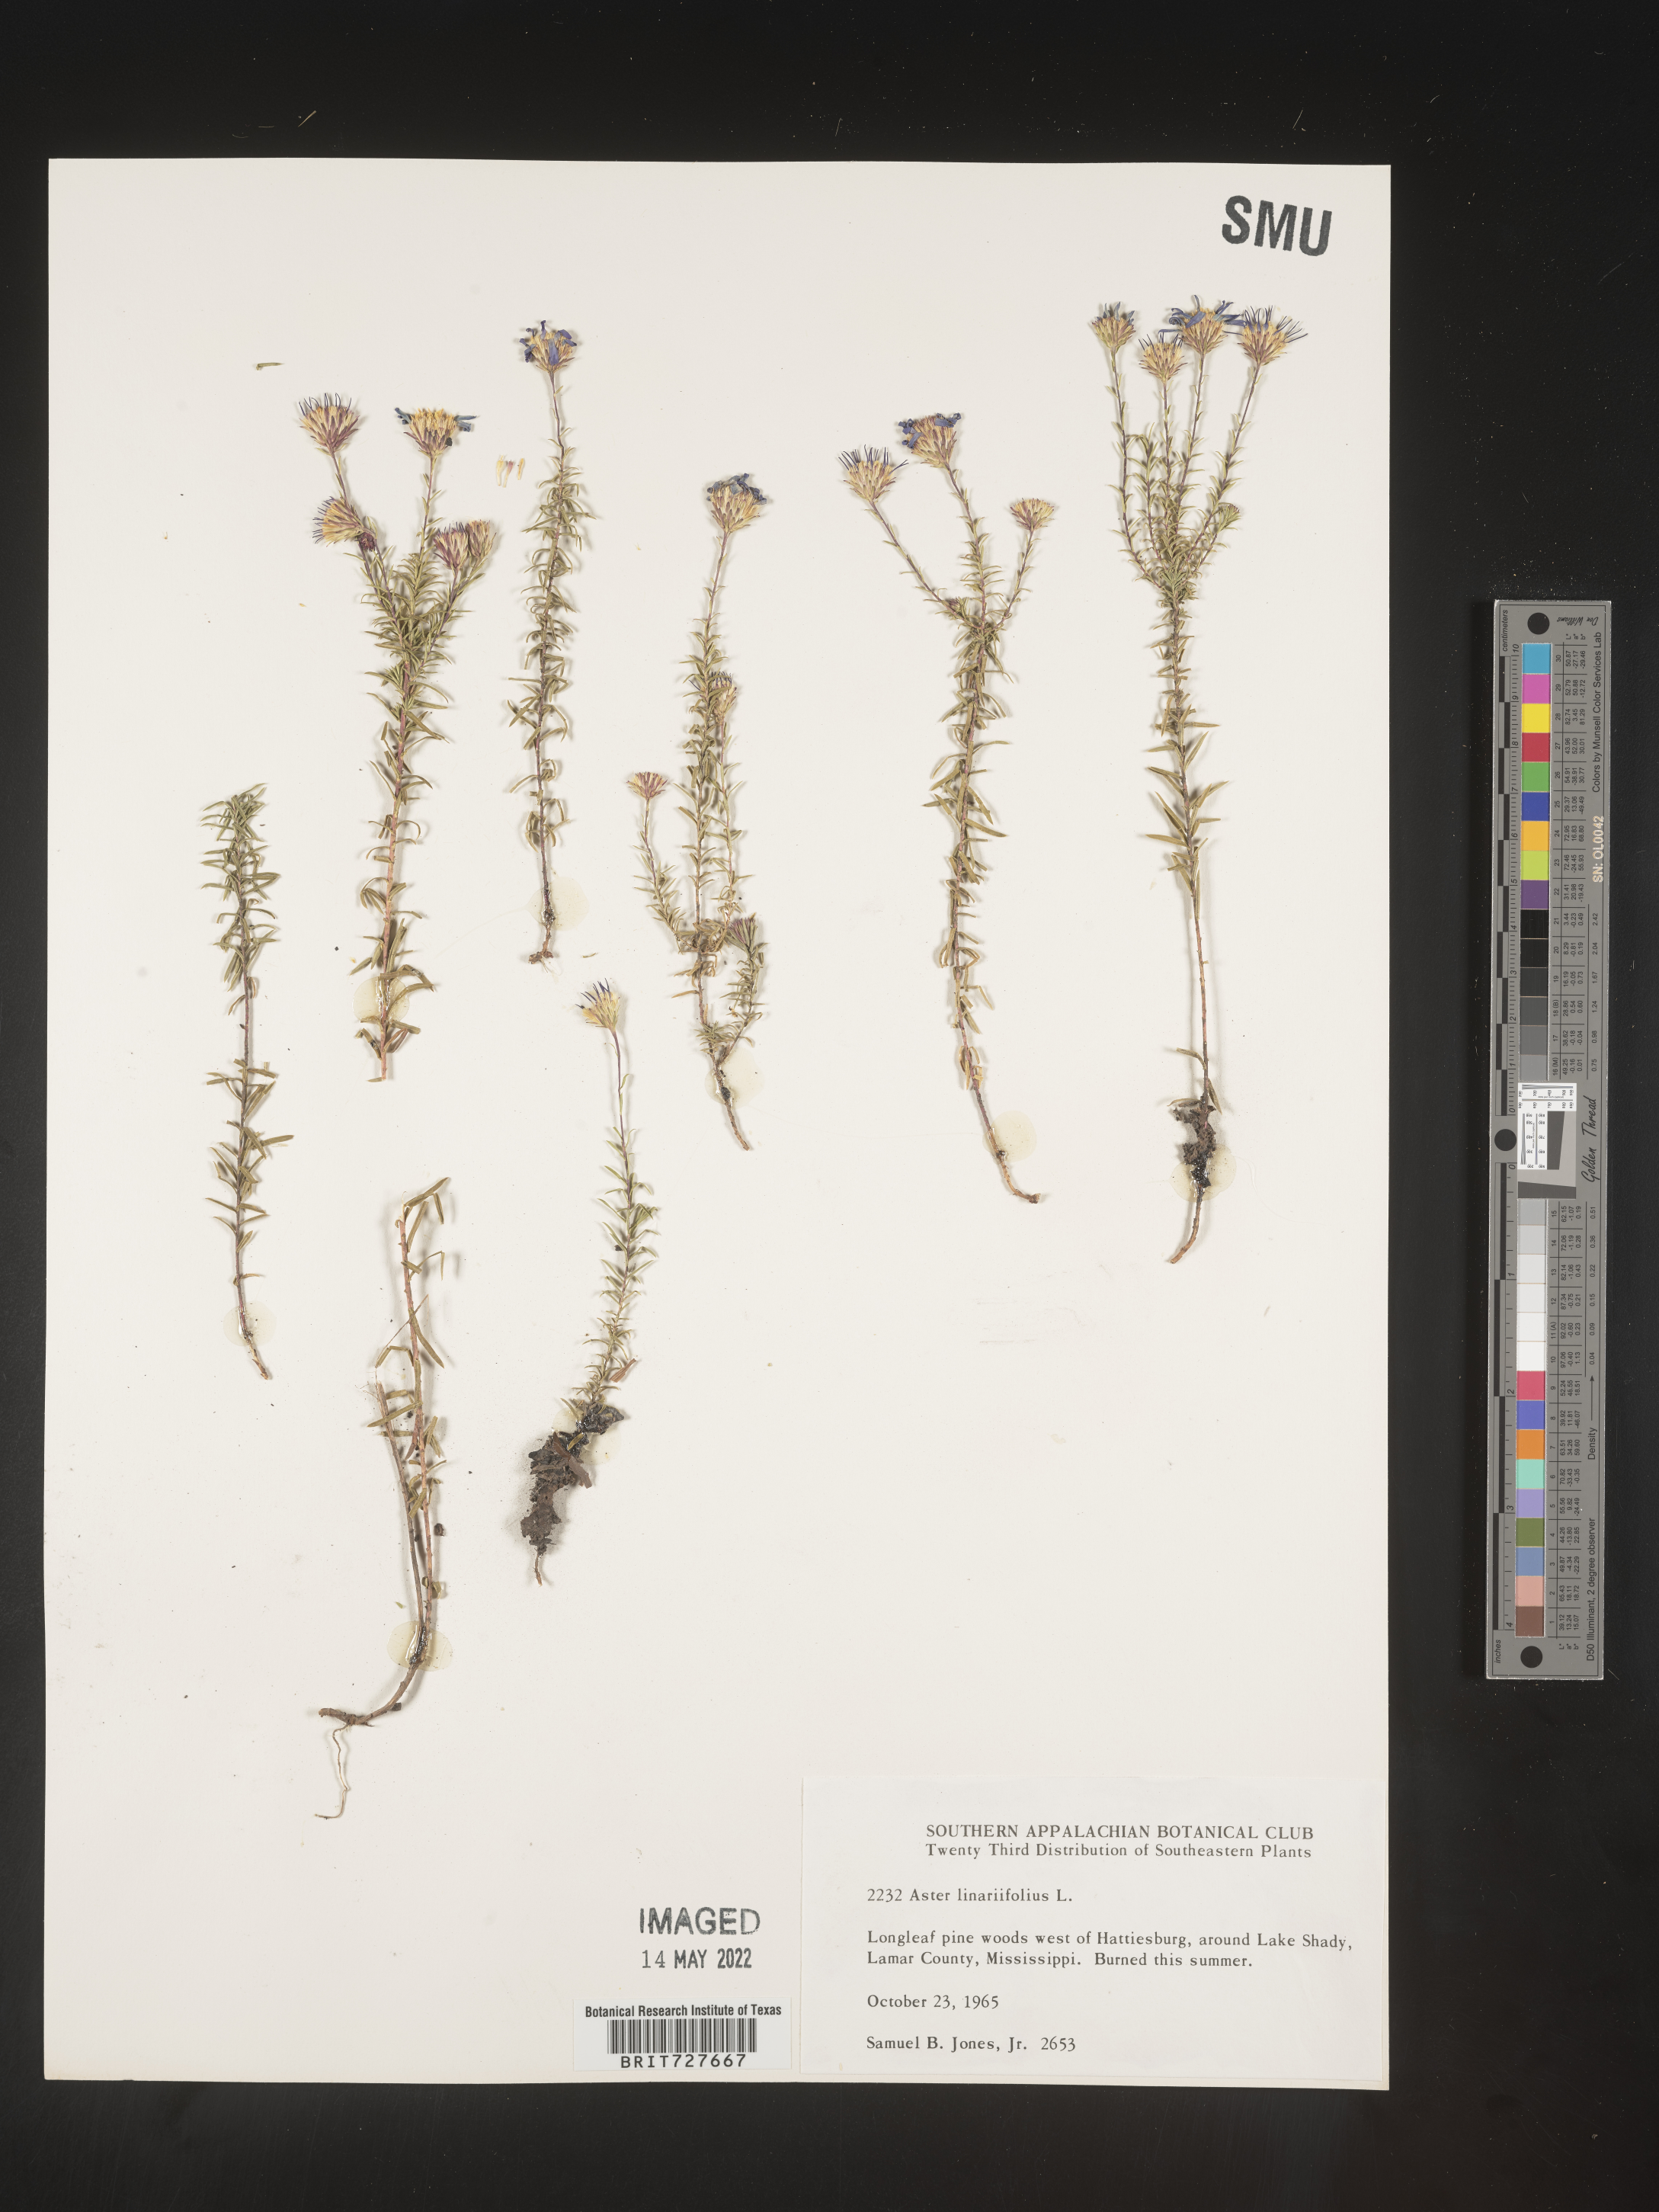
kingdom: Plantae
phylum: Tracheophyta
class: Magnoliopsida
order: Asterales
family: Asteraceae
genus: Ionactis
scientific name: Ionactis linariifolia
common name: Flax-leaf aster
